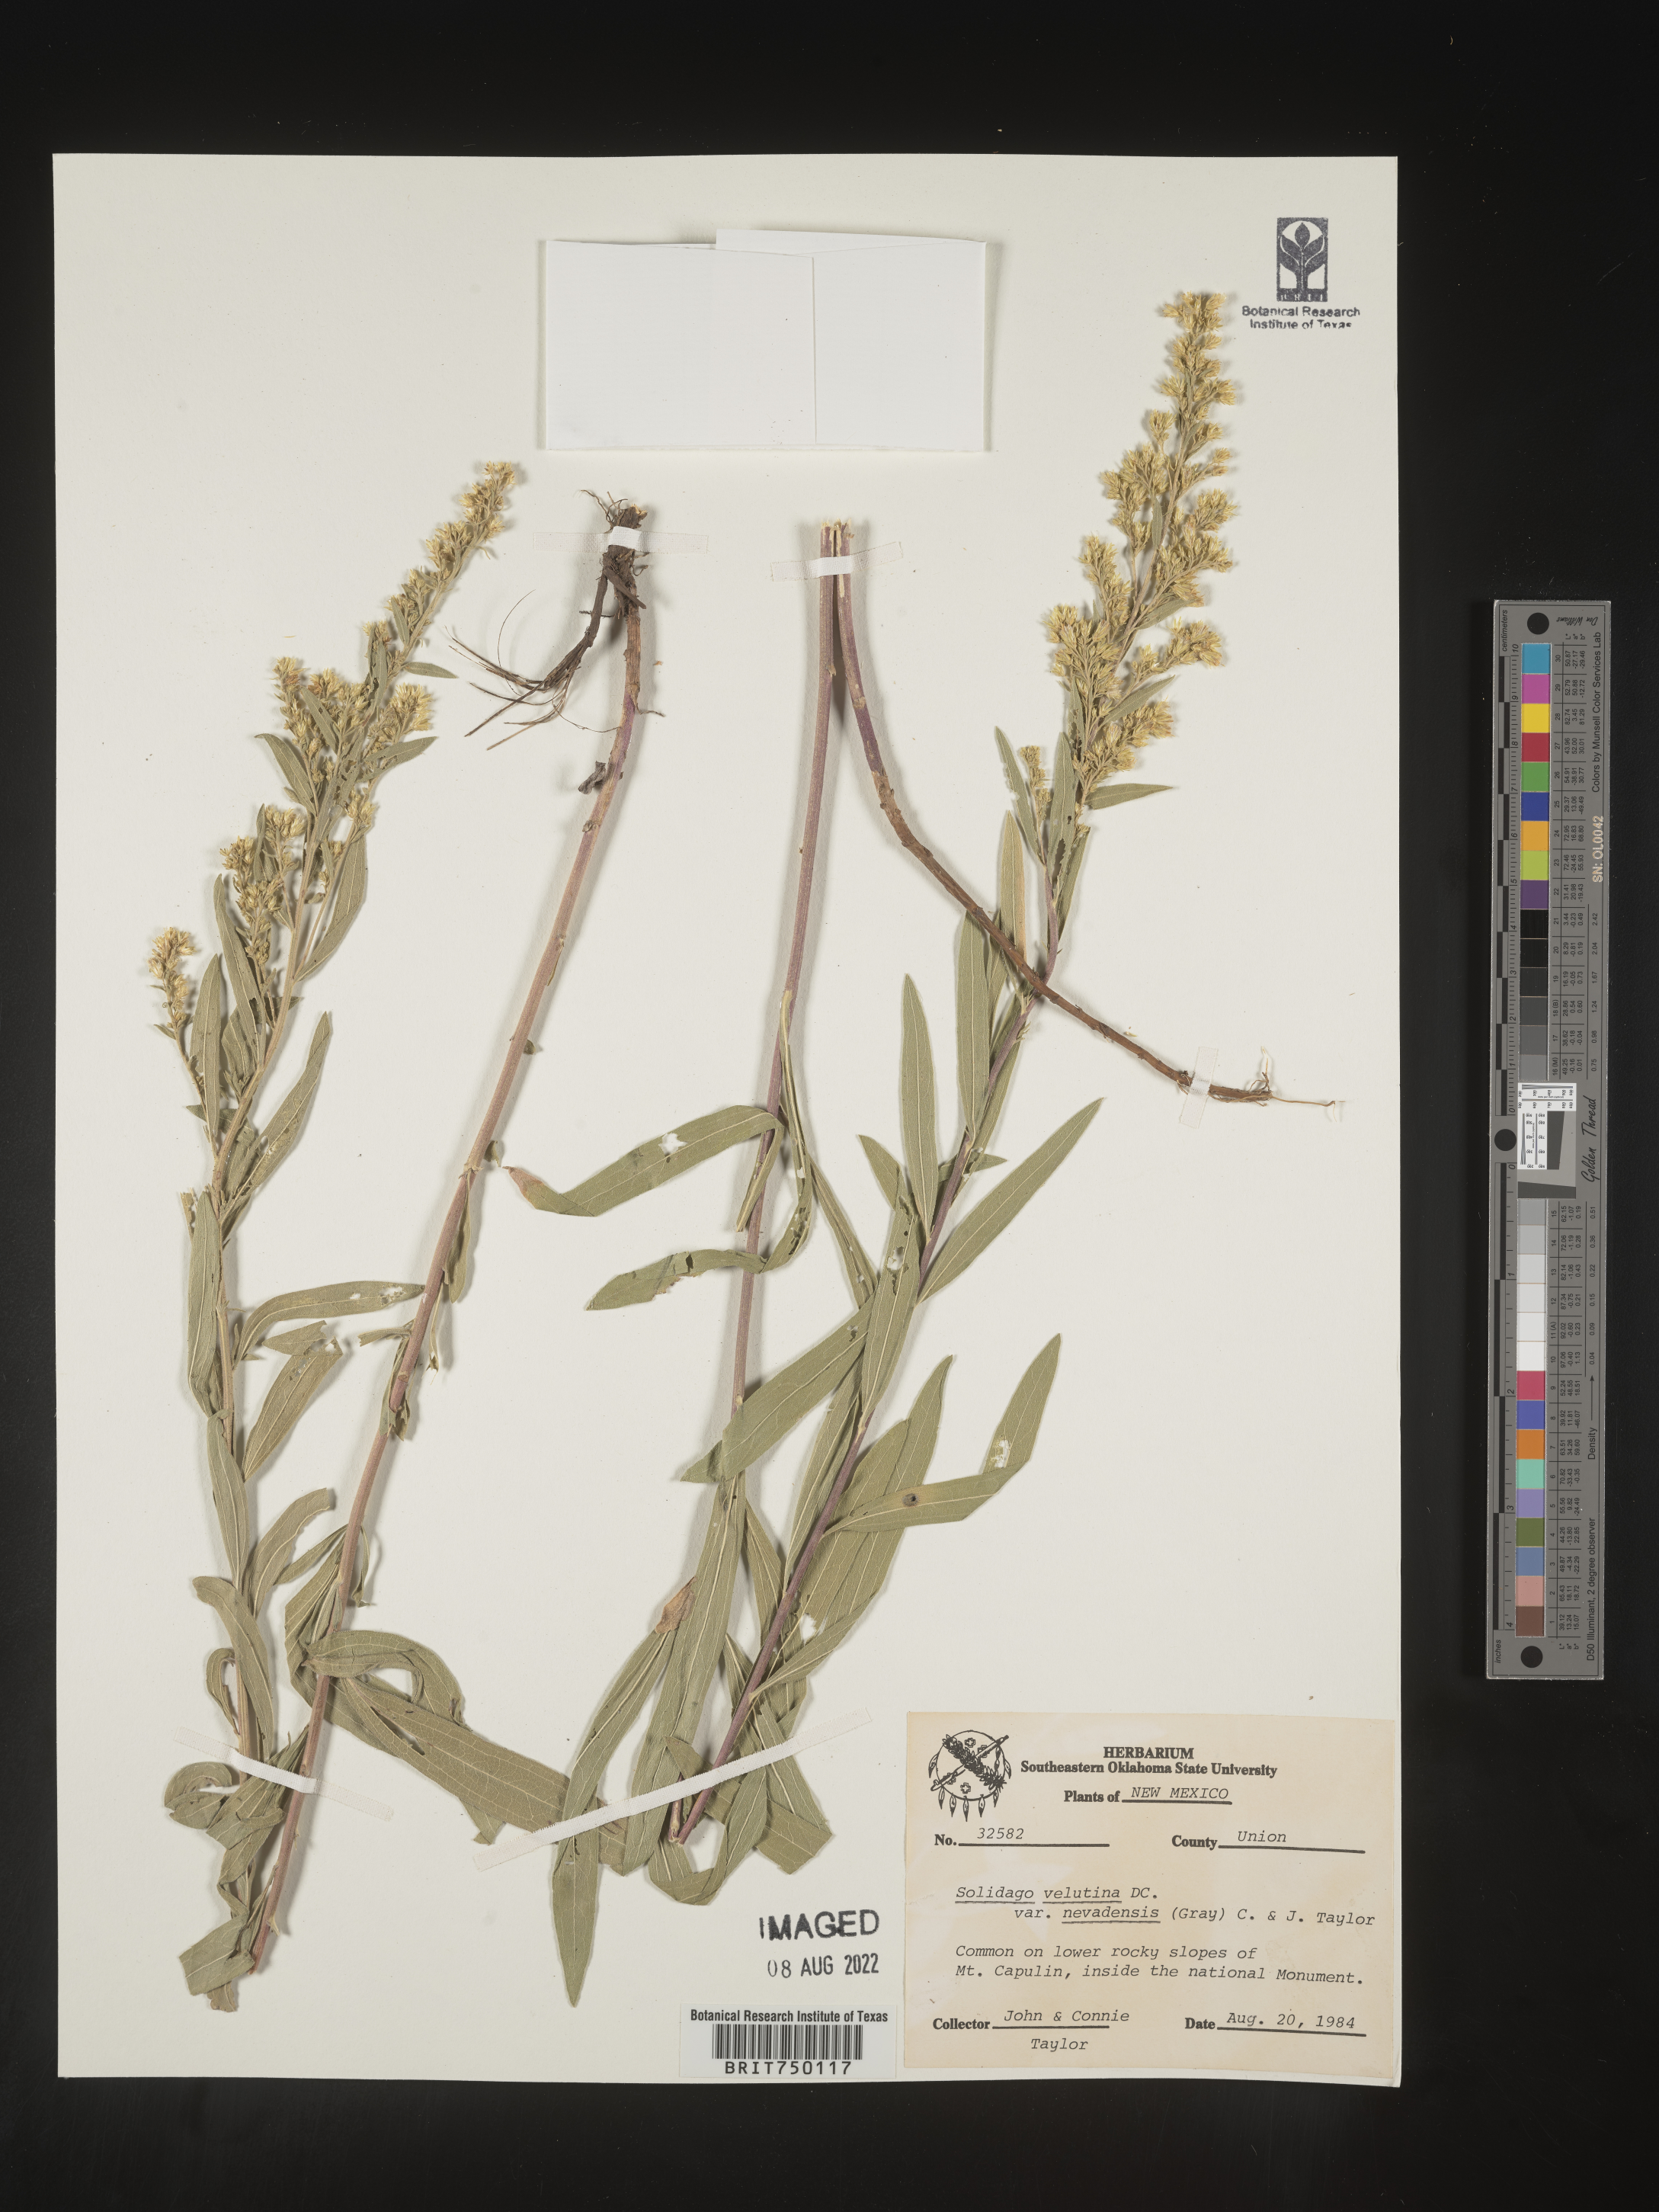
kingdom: Plantae
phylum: Tracheophyta
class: Magnoliopsida
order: Asterales
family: Asteraceae
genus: Solidago
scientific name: Solidago velutina
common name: Three-nerve goldenrod
